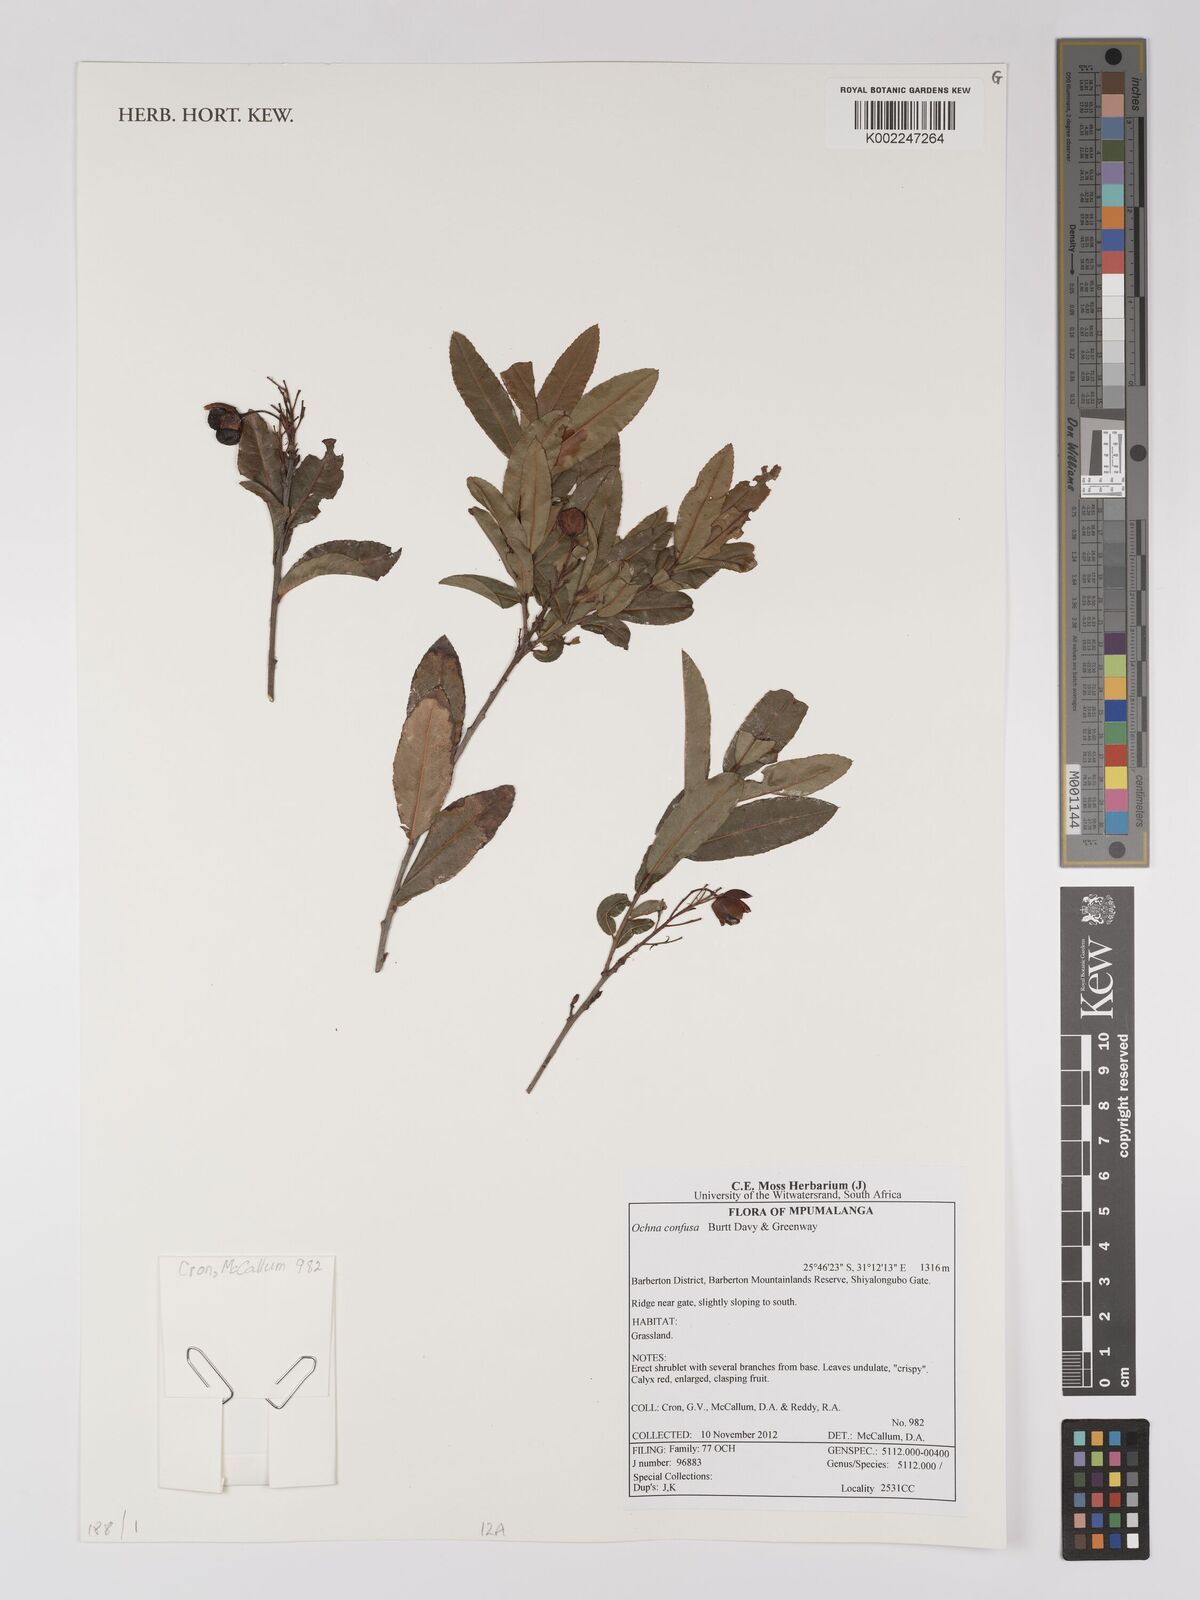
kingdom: Plantae
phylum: Tracheophyta
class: Magnoliopsida
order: Malpighiales
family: Ochnaceae
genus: Ochna
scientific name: Ochna confusa
